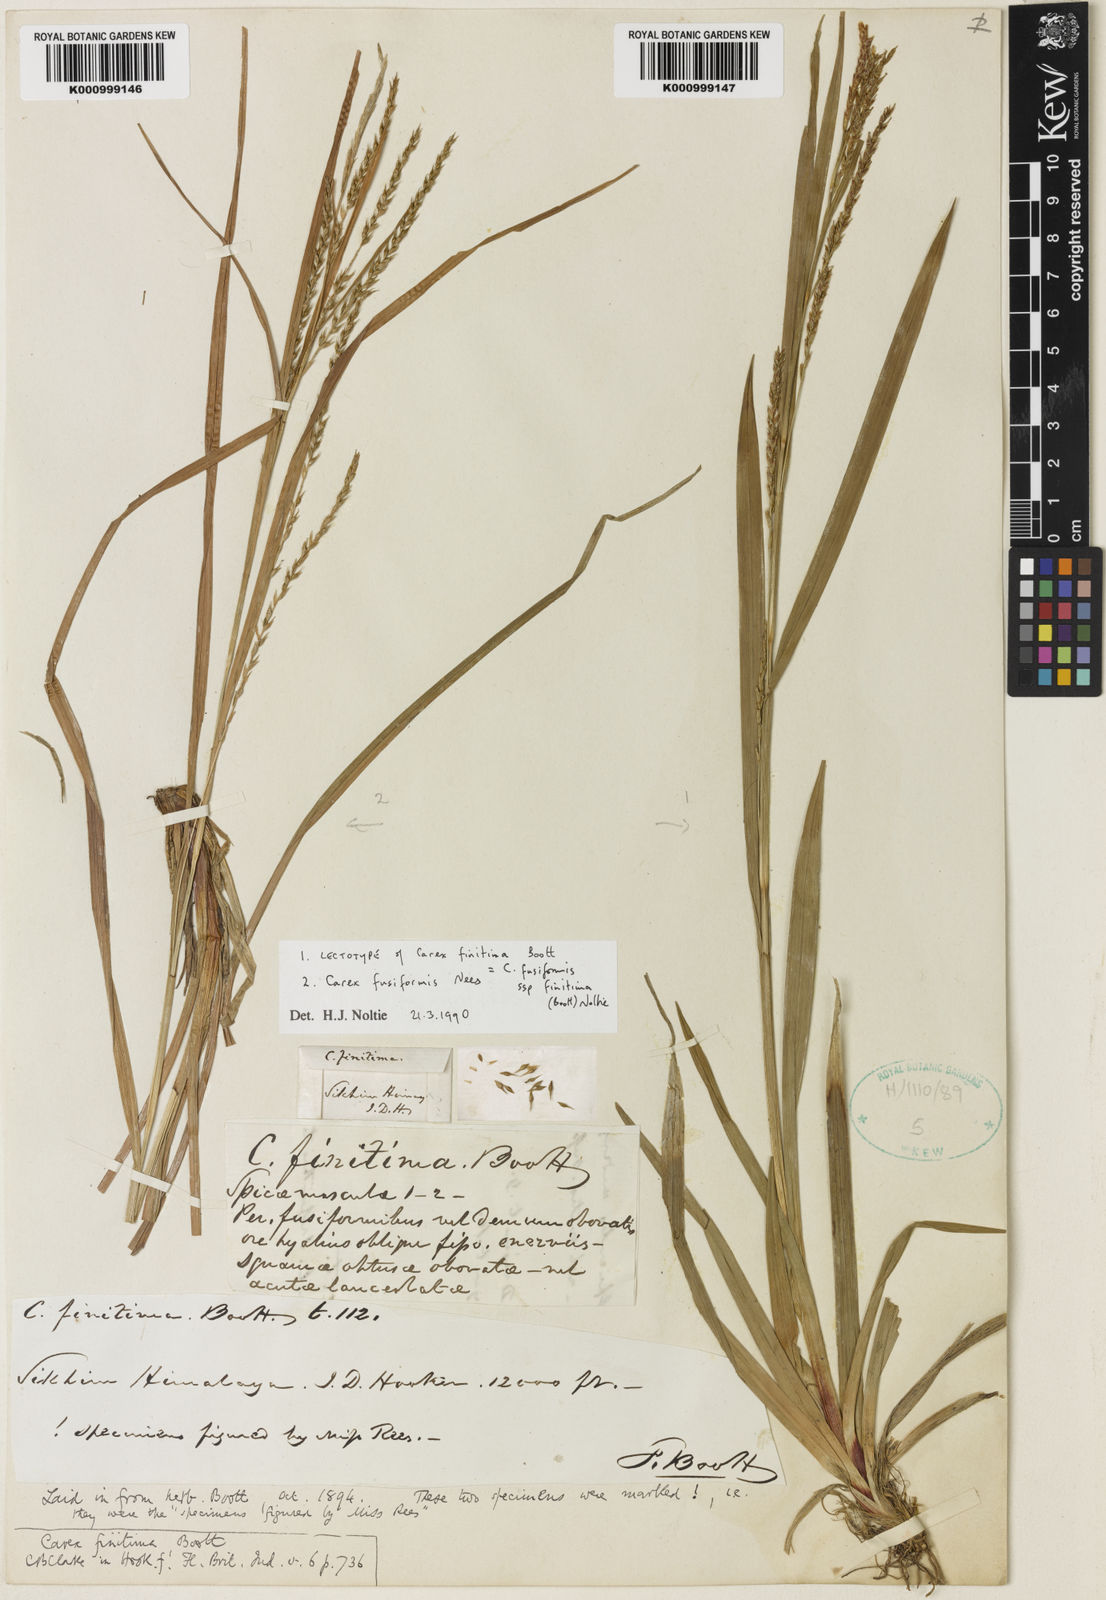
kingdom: Plantae
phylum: Tracheophyta
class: Liliopsida
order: Poales
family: Cyperaceae
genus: Carex
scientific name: Carex fusiformis
